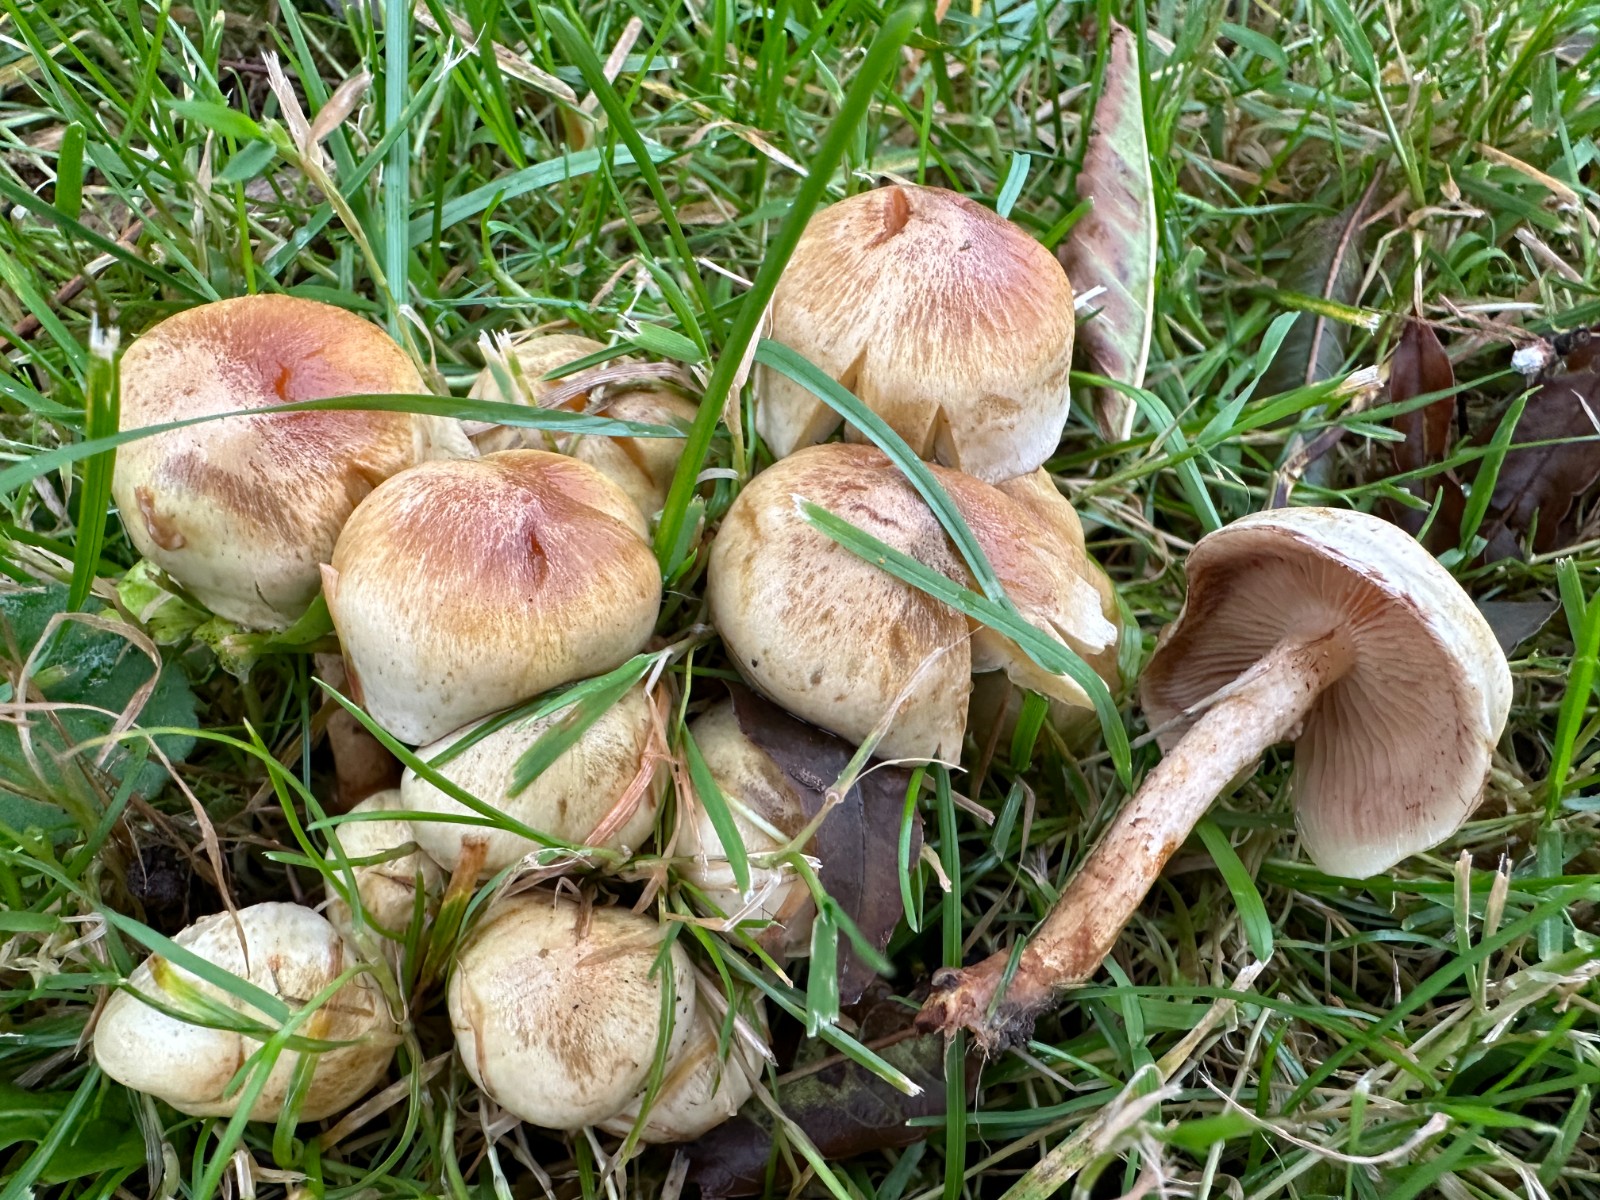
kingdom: Fungi
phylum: Basidiomycota
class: Agaricomycetes
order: Agaricales
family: Strophariaceae
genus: Pholiota
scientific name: Pholiota gummosa
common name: grøngul skælhat
